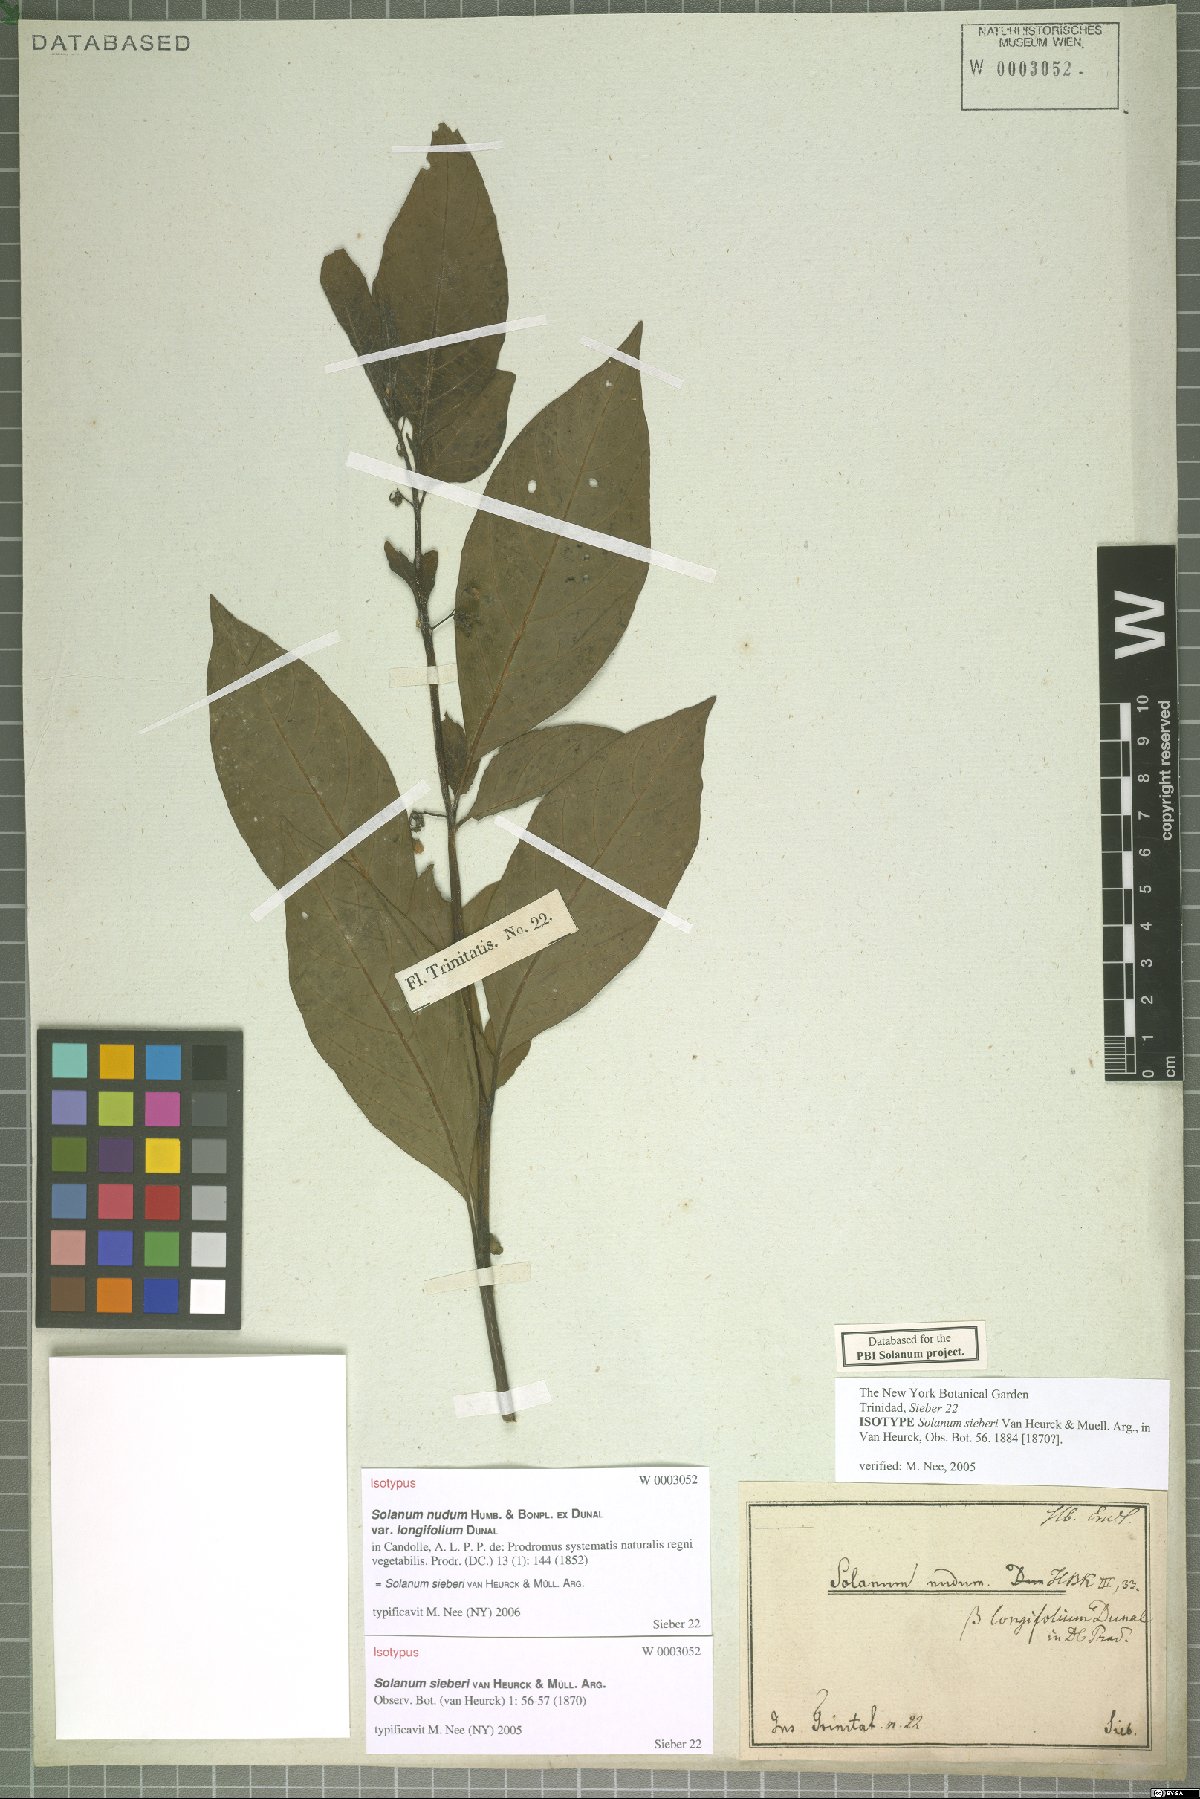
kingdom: Plantae
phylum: Tracheophyta
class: Magnoliopsida
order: Solanales
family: Solanaceae
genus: Solanum
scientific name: Solanum sieberi
